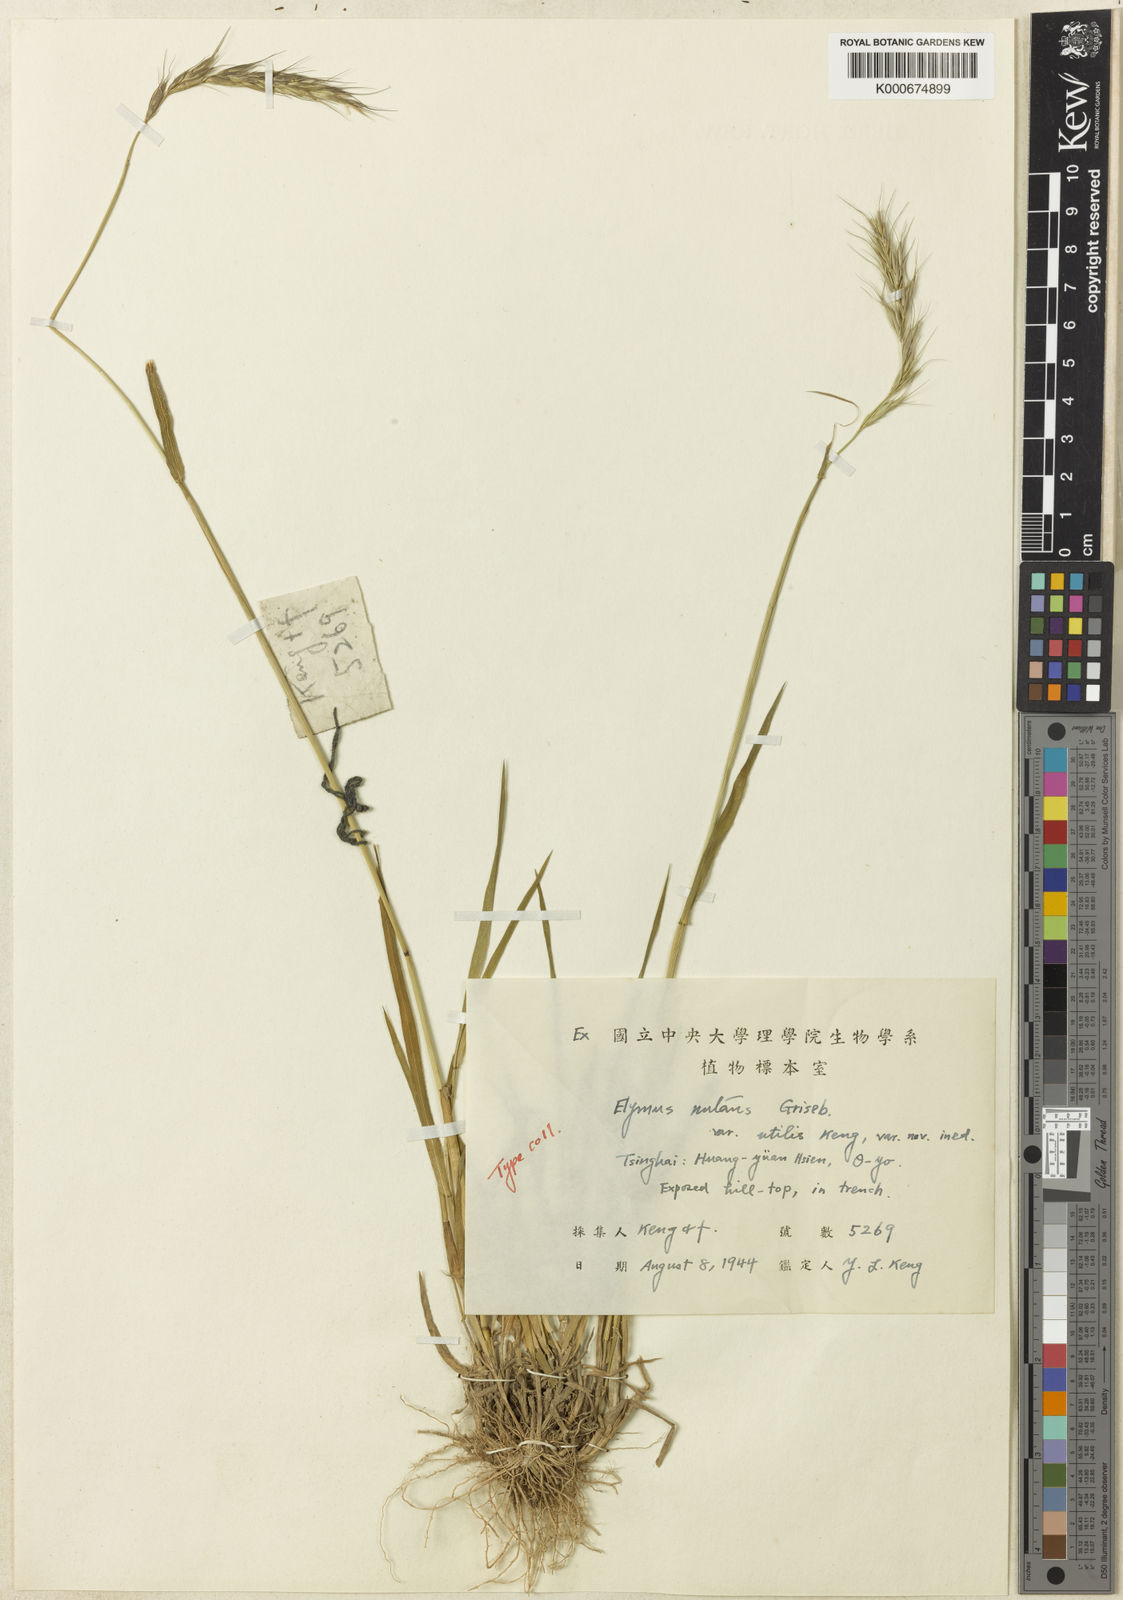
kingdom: Plantae
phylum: Tracheophyta
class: Liliopsida
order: Poales
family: Poaceae
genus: Elymus
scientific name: Elymus nutans
